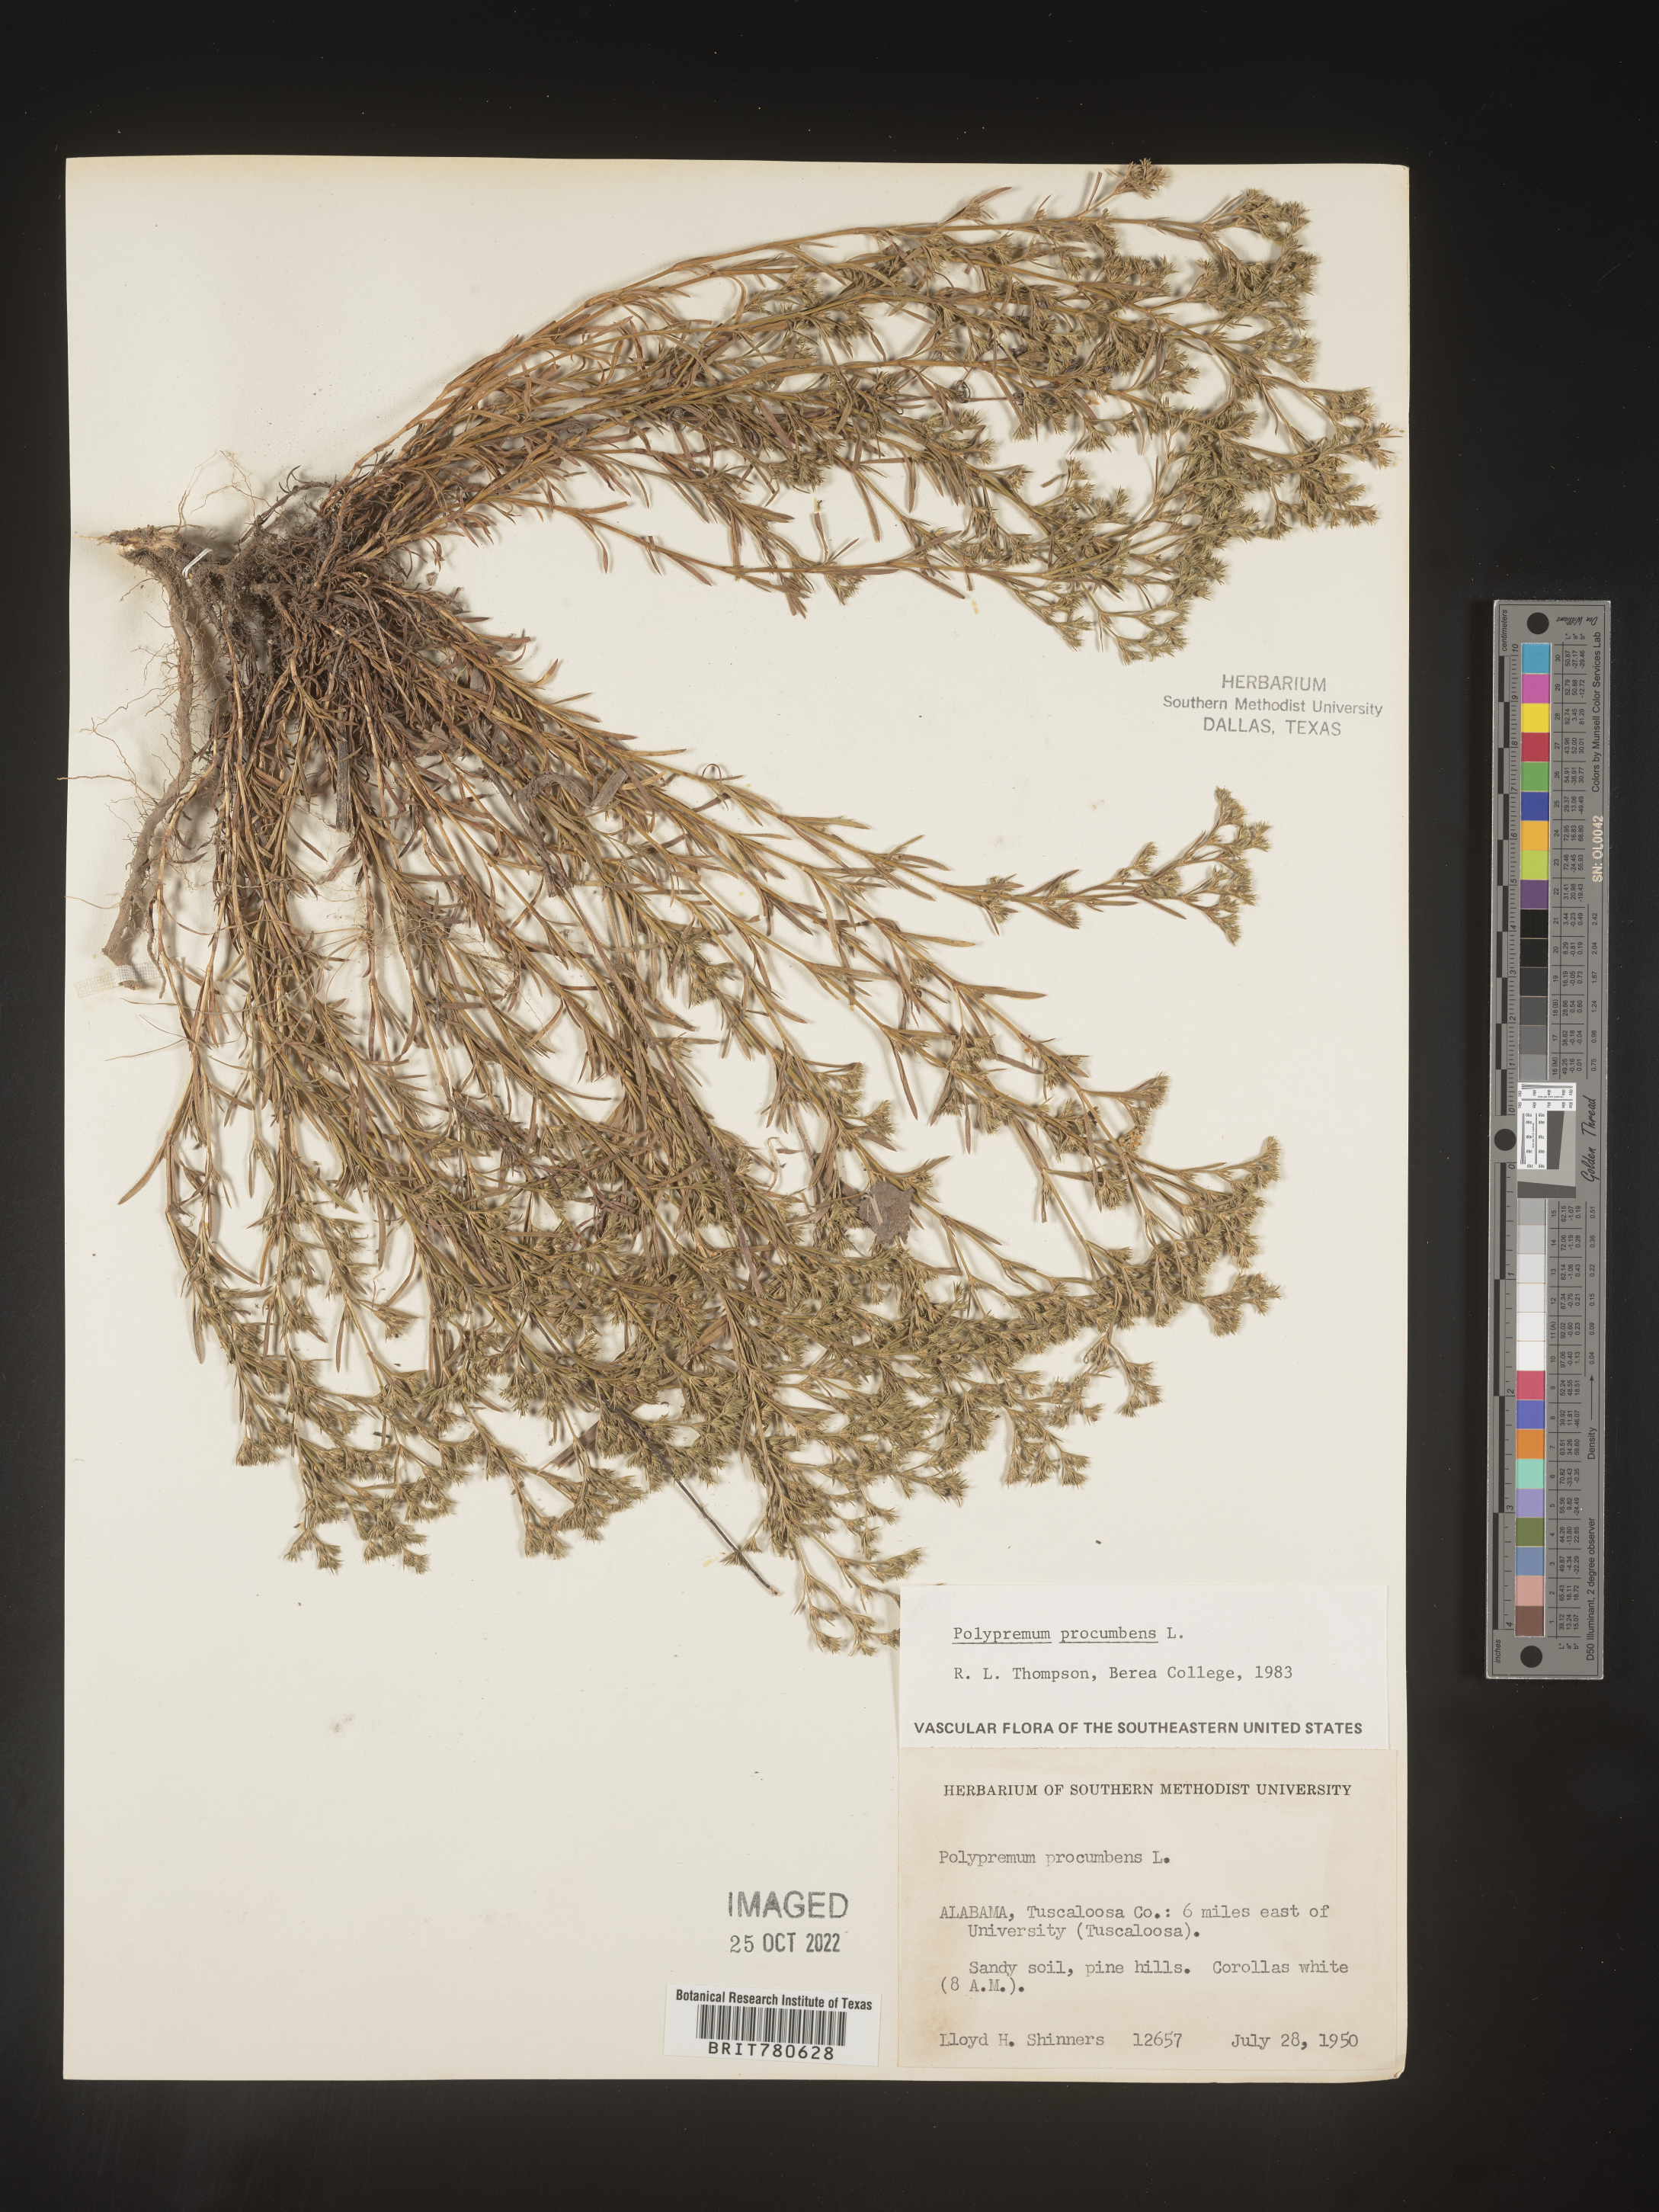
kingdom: Plantae
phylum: Tracheophyta
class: Magnoliopsida
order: Lamiales
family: Tetrachondraceae
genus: Polypremum
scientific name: Polypremum procumbens
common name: Juniper-leaf
